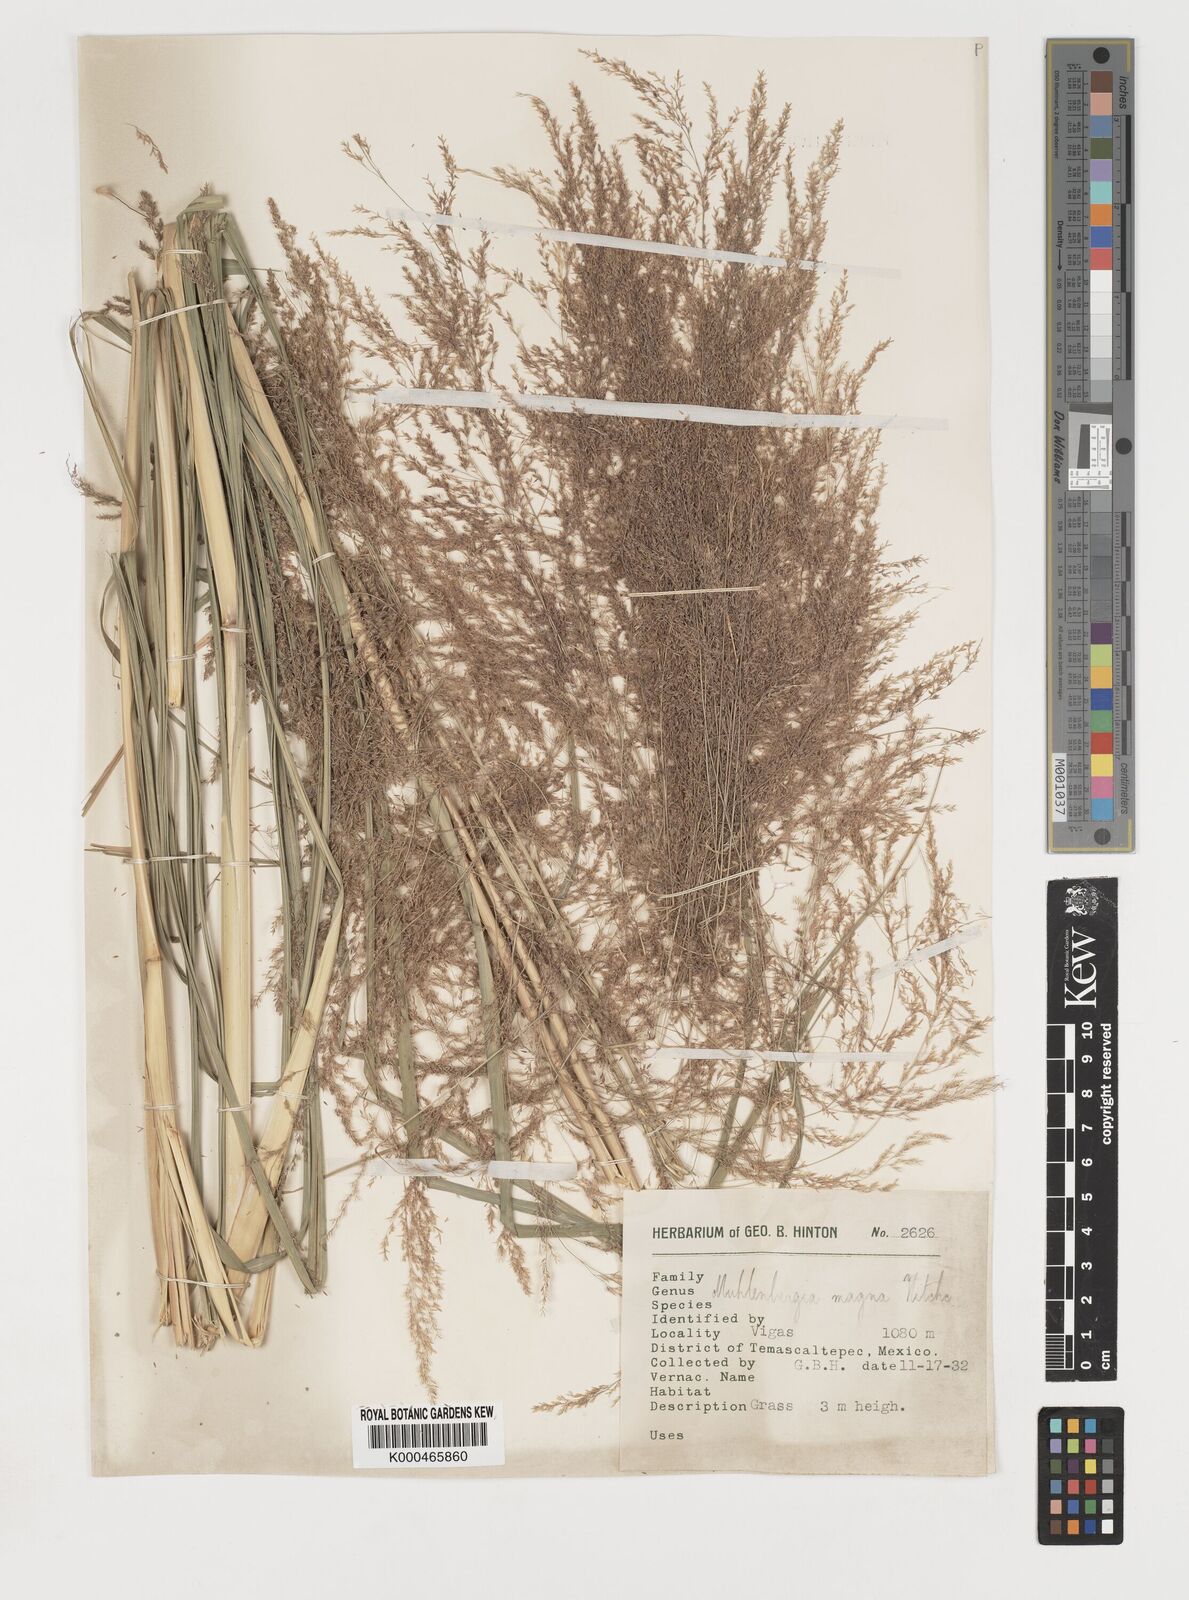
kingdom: Plantae
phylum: Tracheophyta
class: Liliopsida
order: Poales
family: Poaceae
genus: Muhlenbergia
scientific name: Muhlenbergia gigantea
